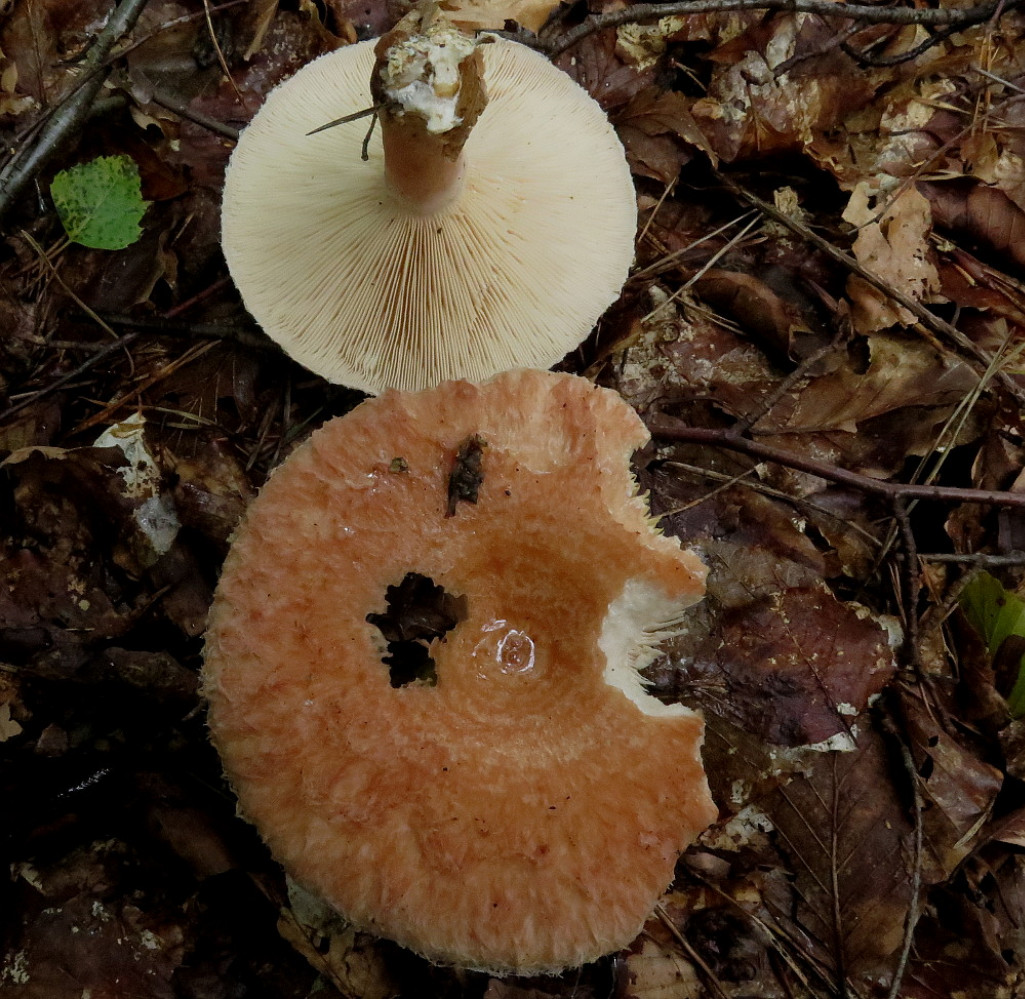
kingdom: Fungi
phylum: Basidiomycota
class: Agaricomycetes
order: Russulales
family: Russulaceae
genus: Lactarius
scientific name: Lactarius torminosus
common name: skægget mælkehat
